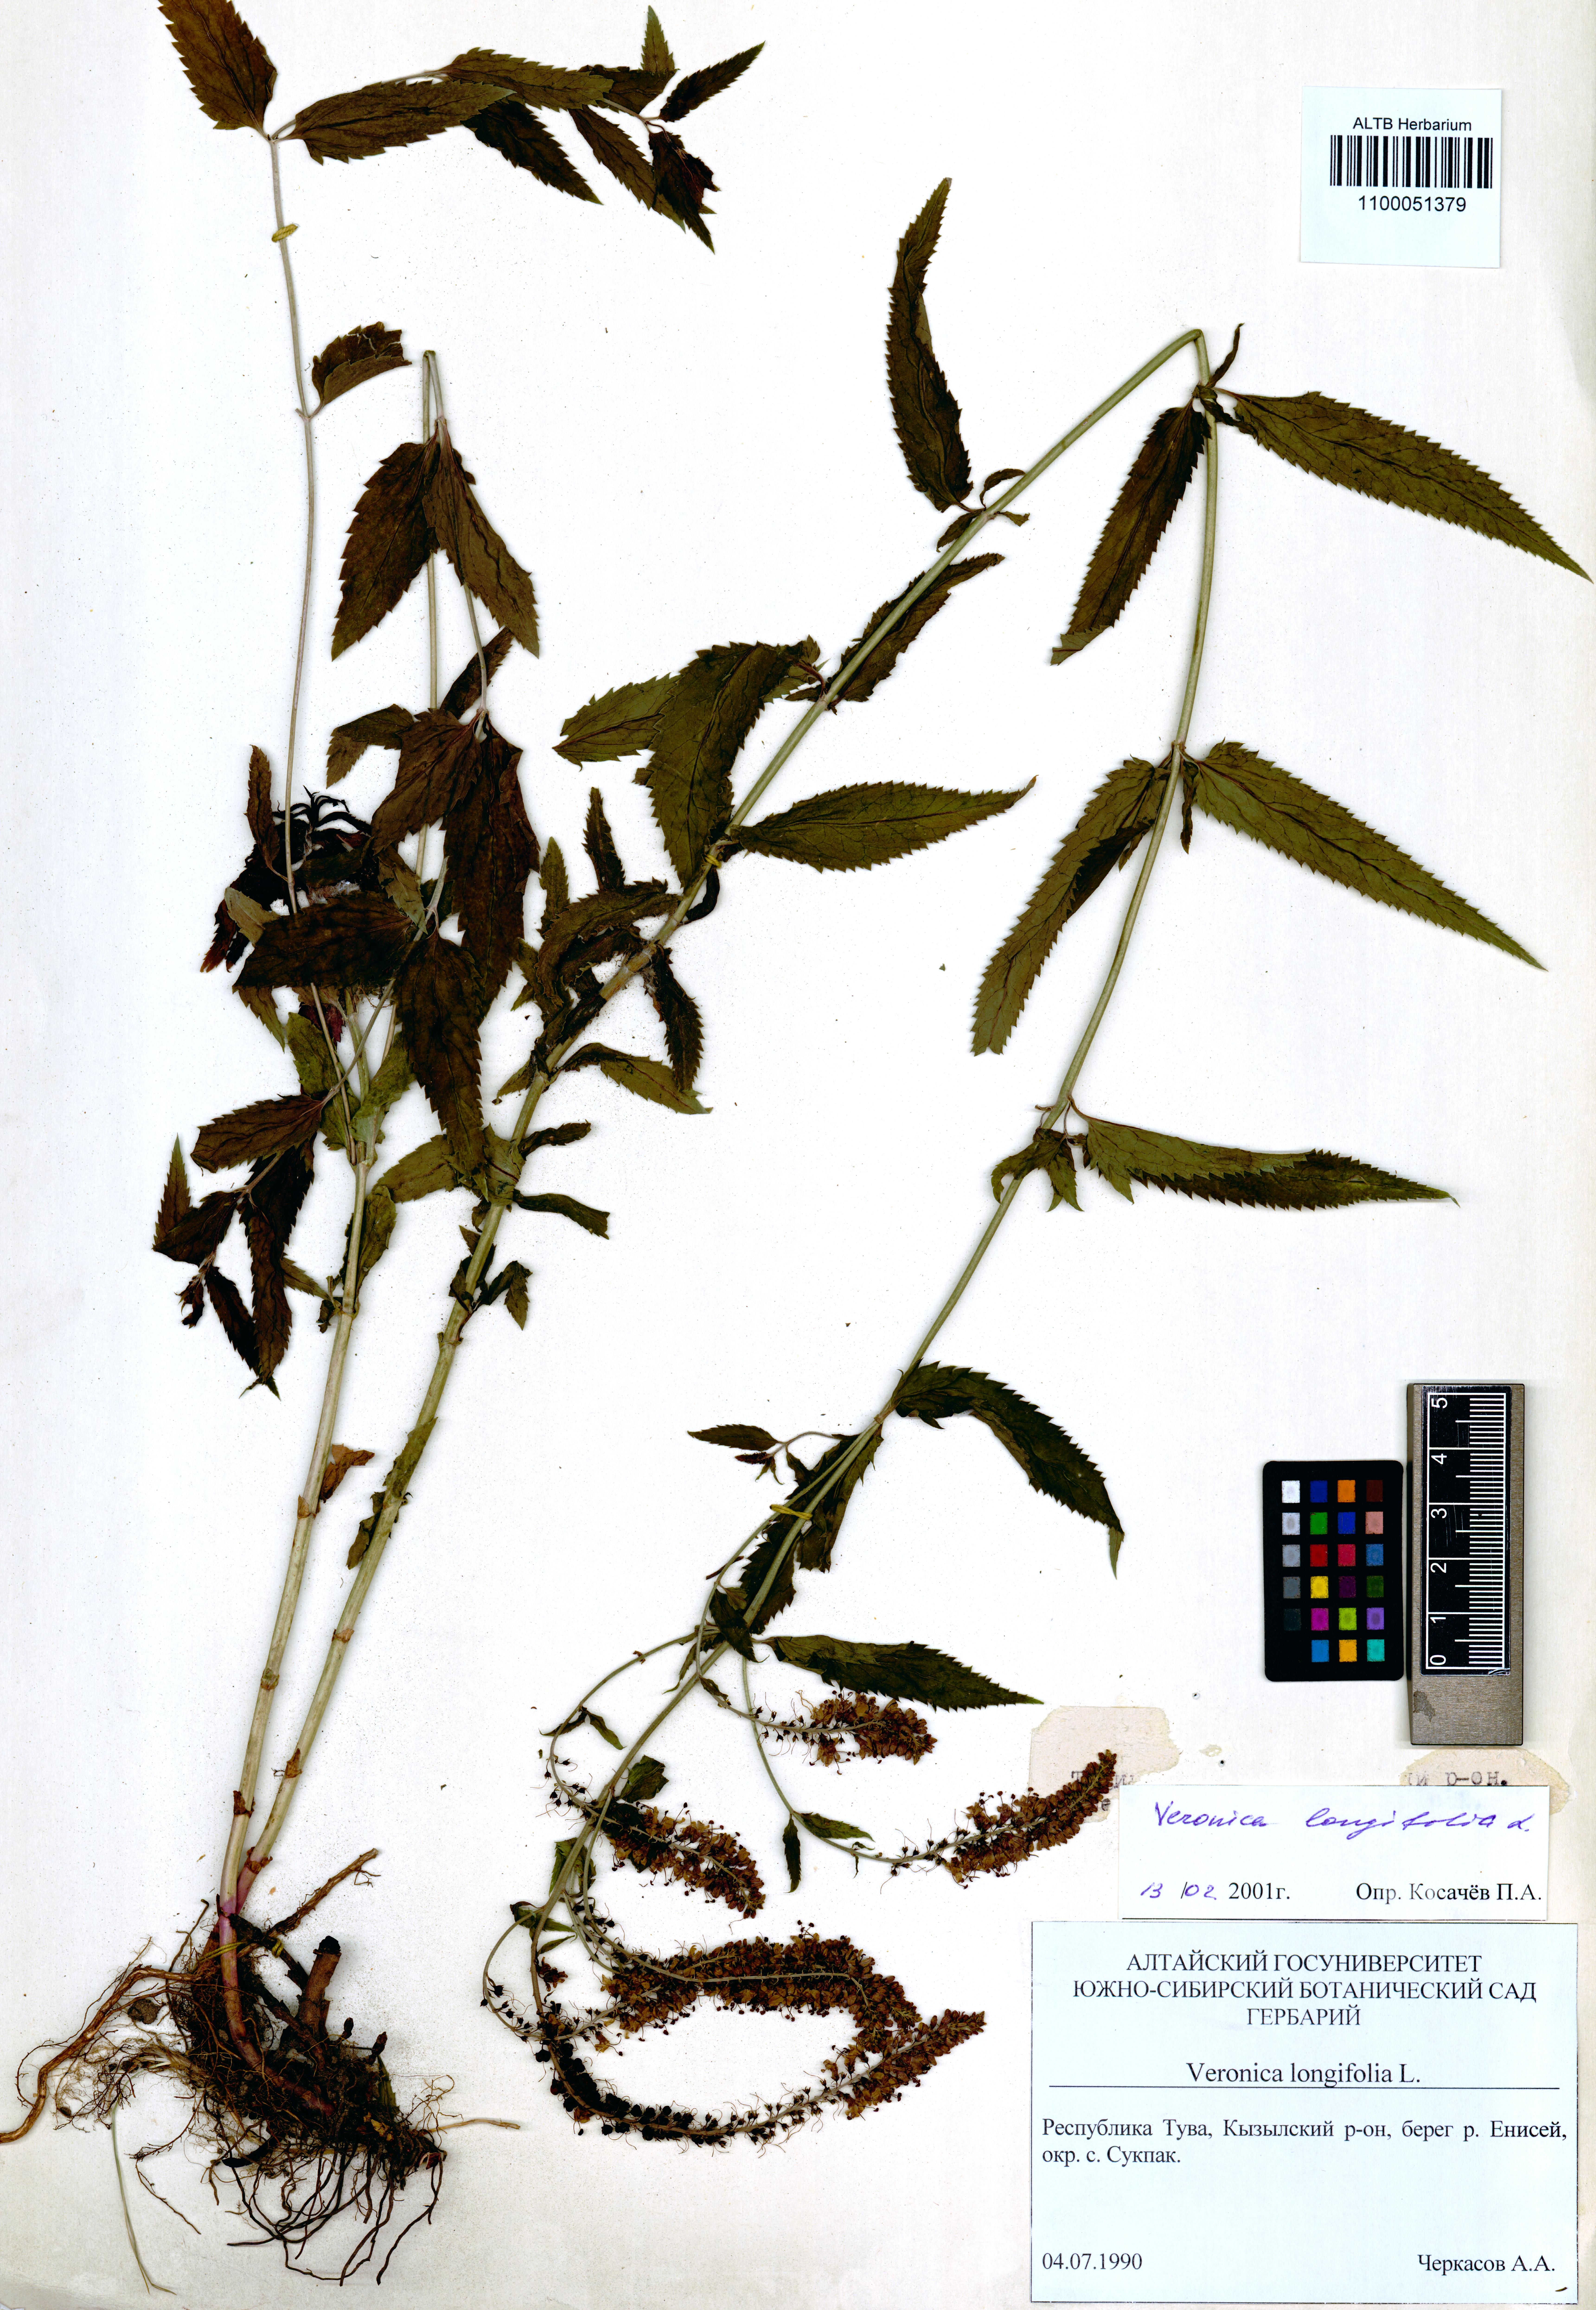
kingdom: Plantae
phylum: Tracheophyta
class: Magnoliopsida
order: Lamiales
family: Plantaginaceae
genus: Veronica
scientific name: Veronica longifolia
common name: Garden speedwell
